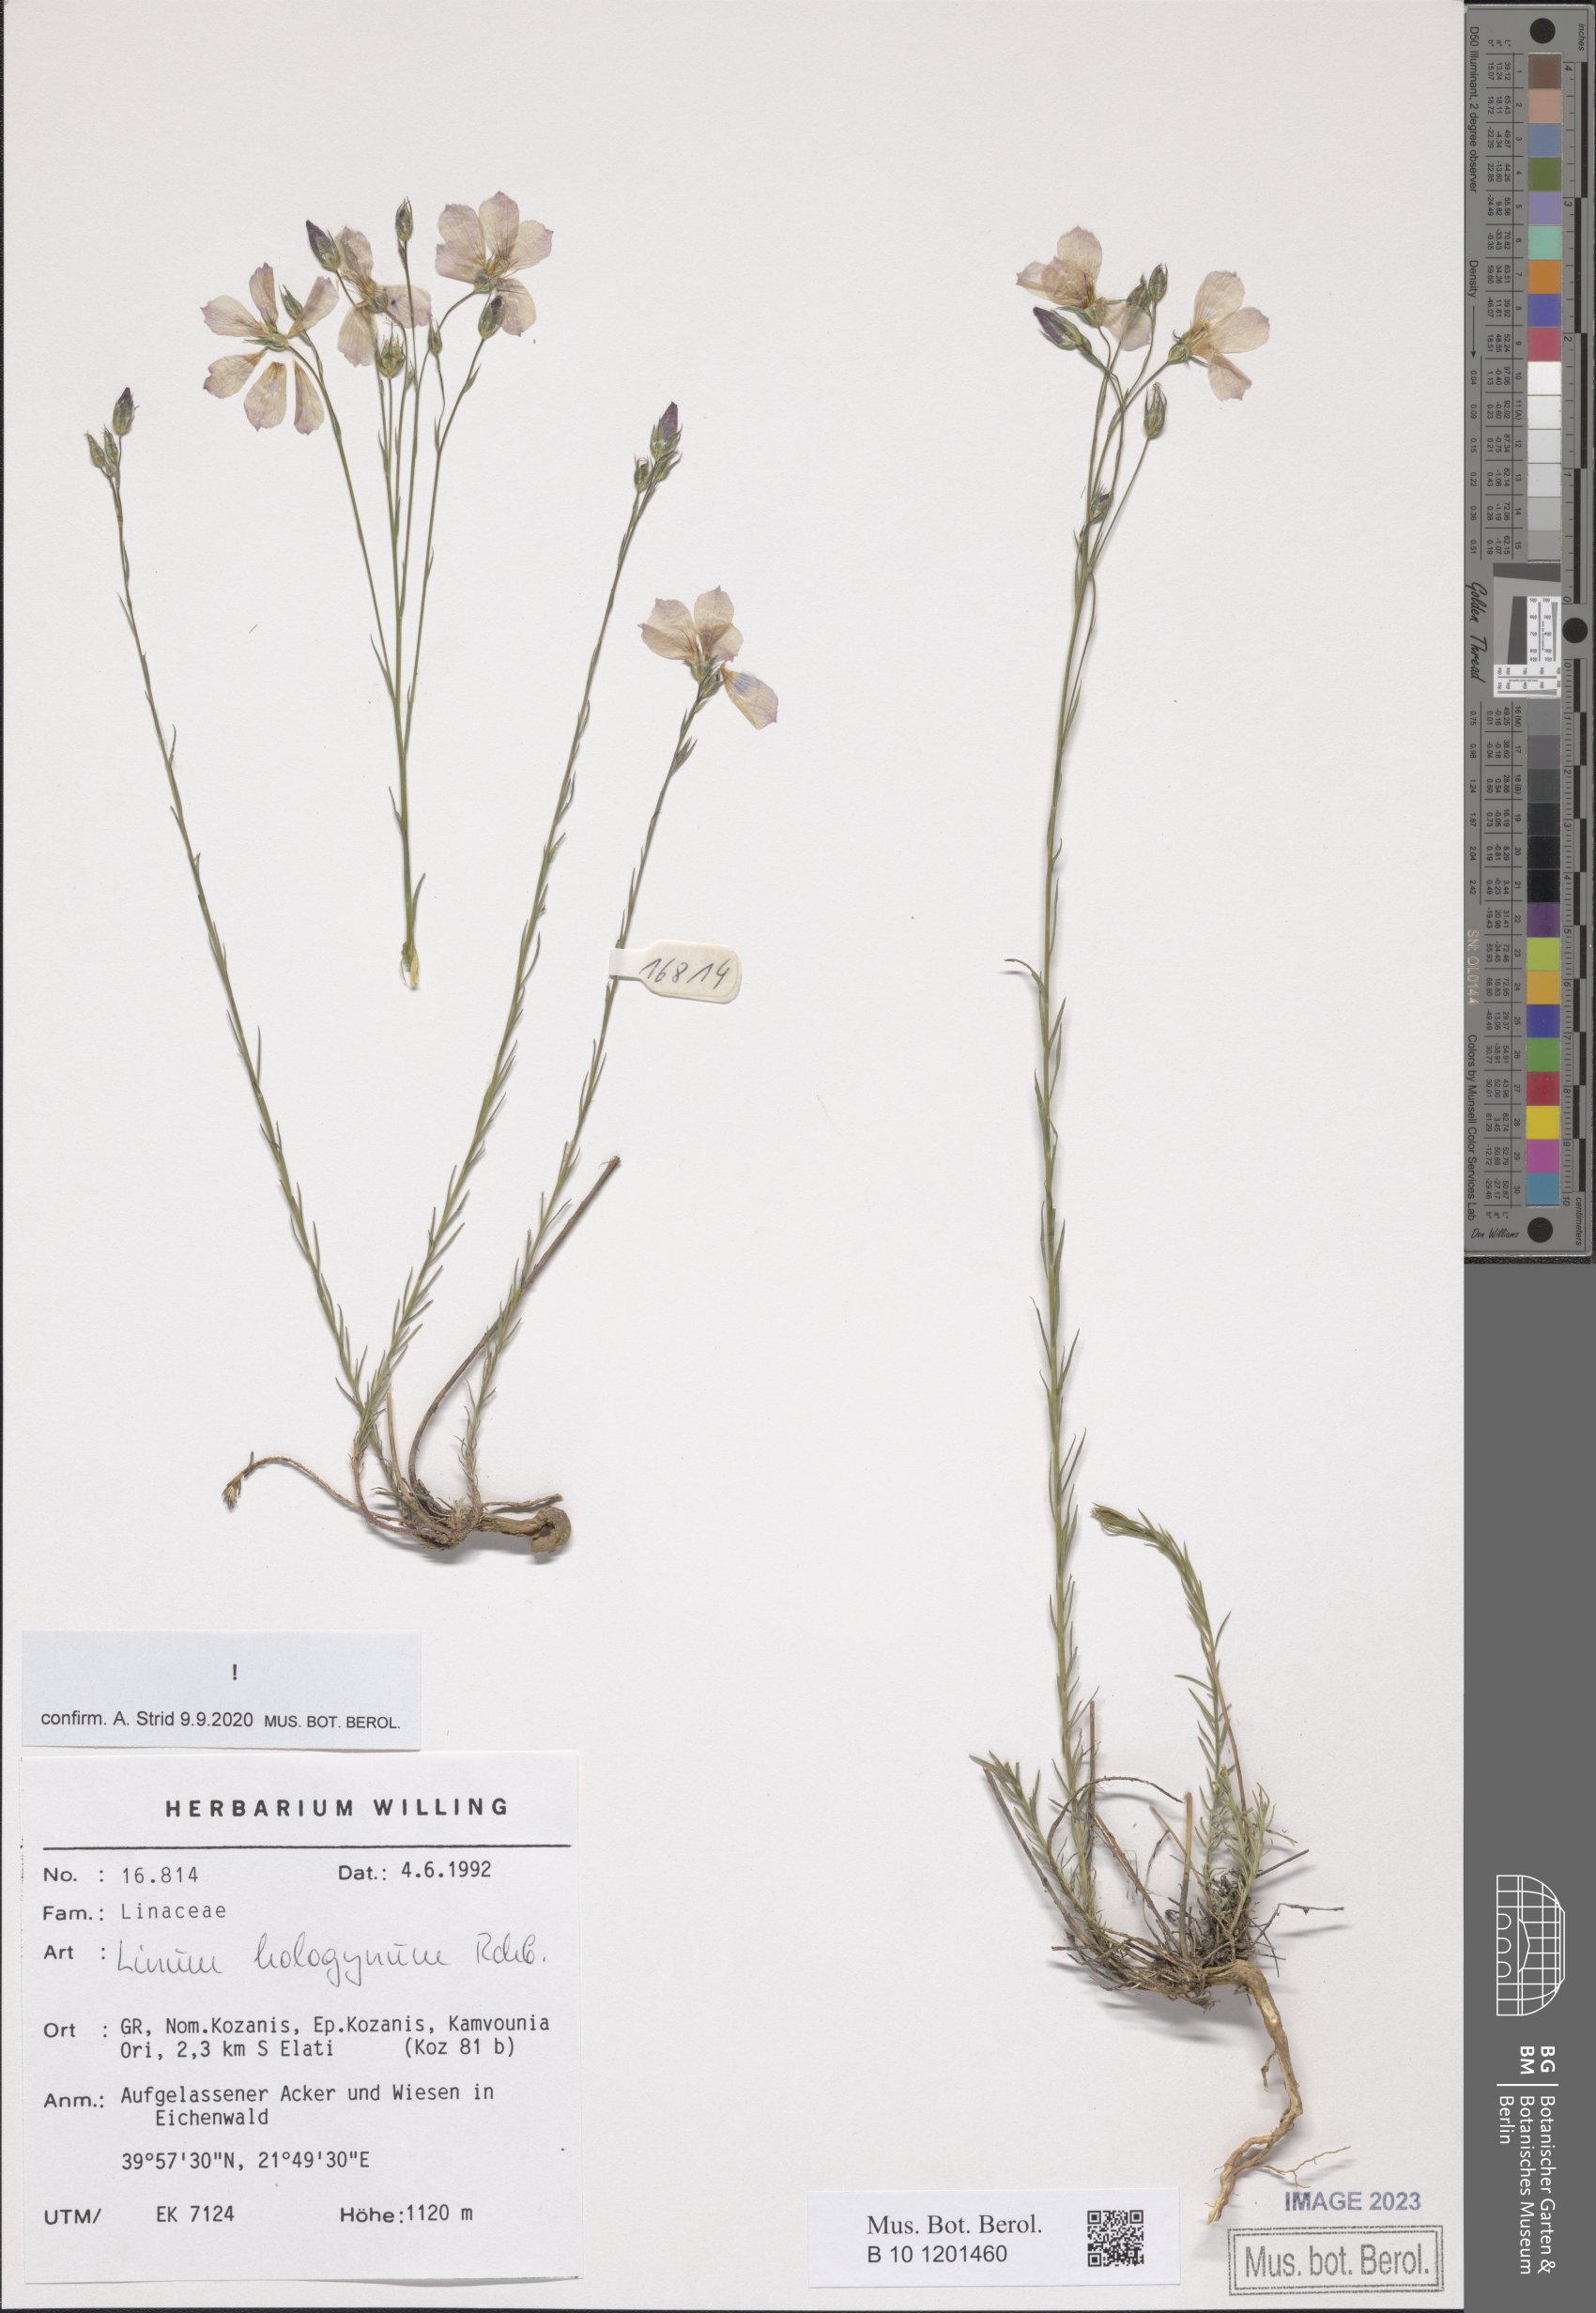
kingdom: Plantae
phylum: Tracheophyta
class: Magnoliopsida
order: Malpighiales
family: Linaceae
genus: Linum
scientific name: Linum hologynum
